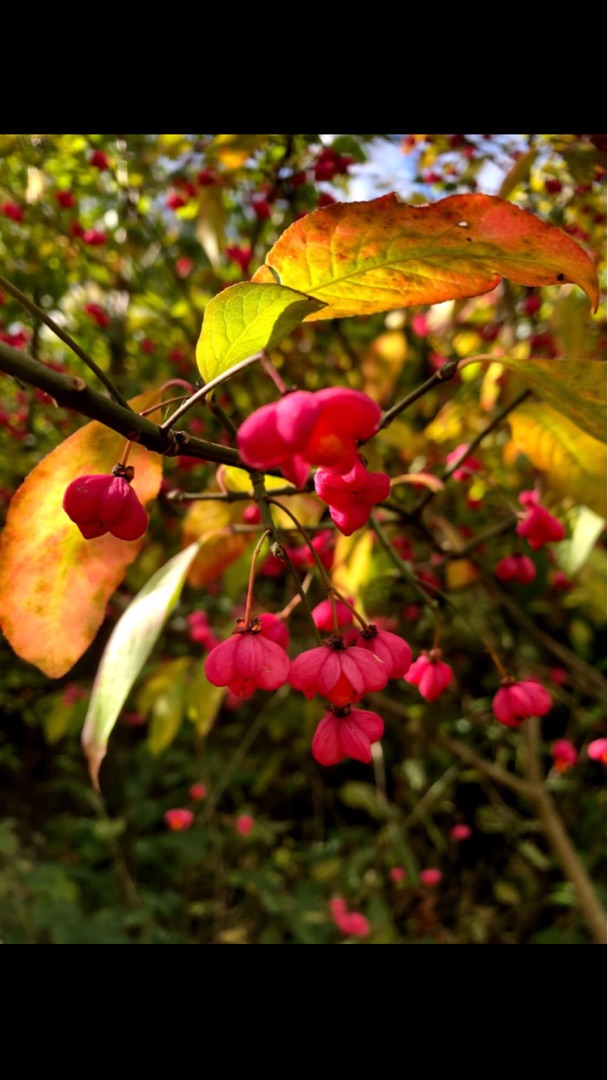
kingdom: Plantae
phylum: Tracheophyta
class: Magnoliopsida
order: Celastrales
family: Celastraceae
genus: Euonymus
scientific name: Euonymus europaeus
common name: Benved
